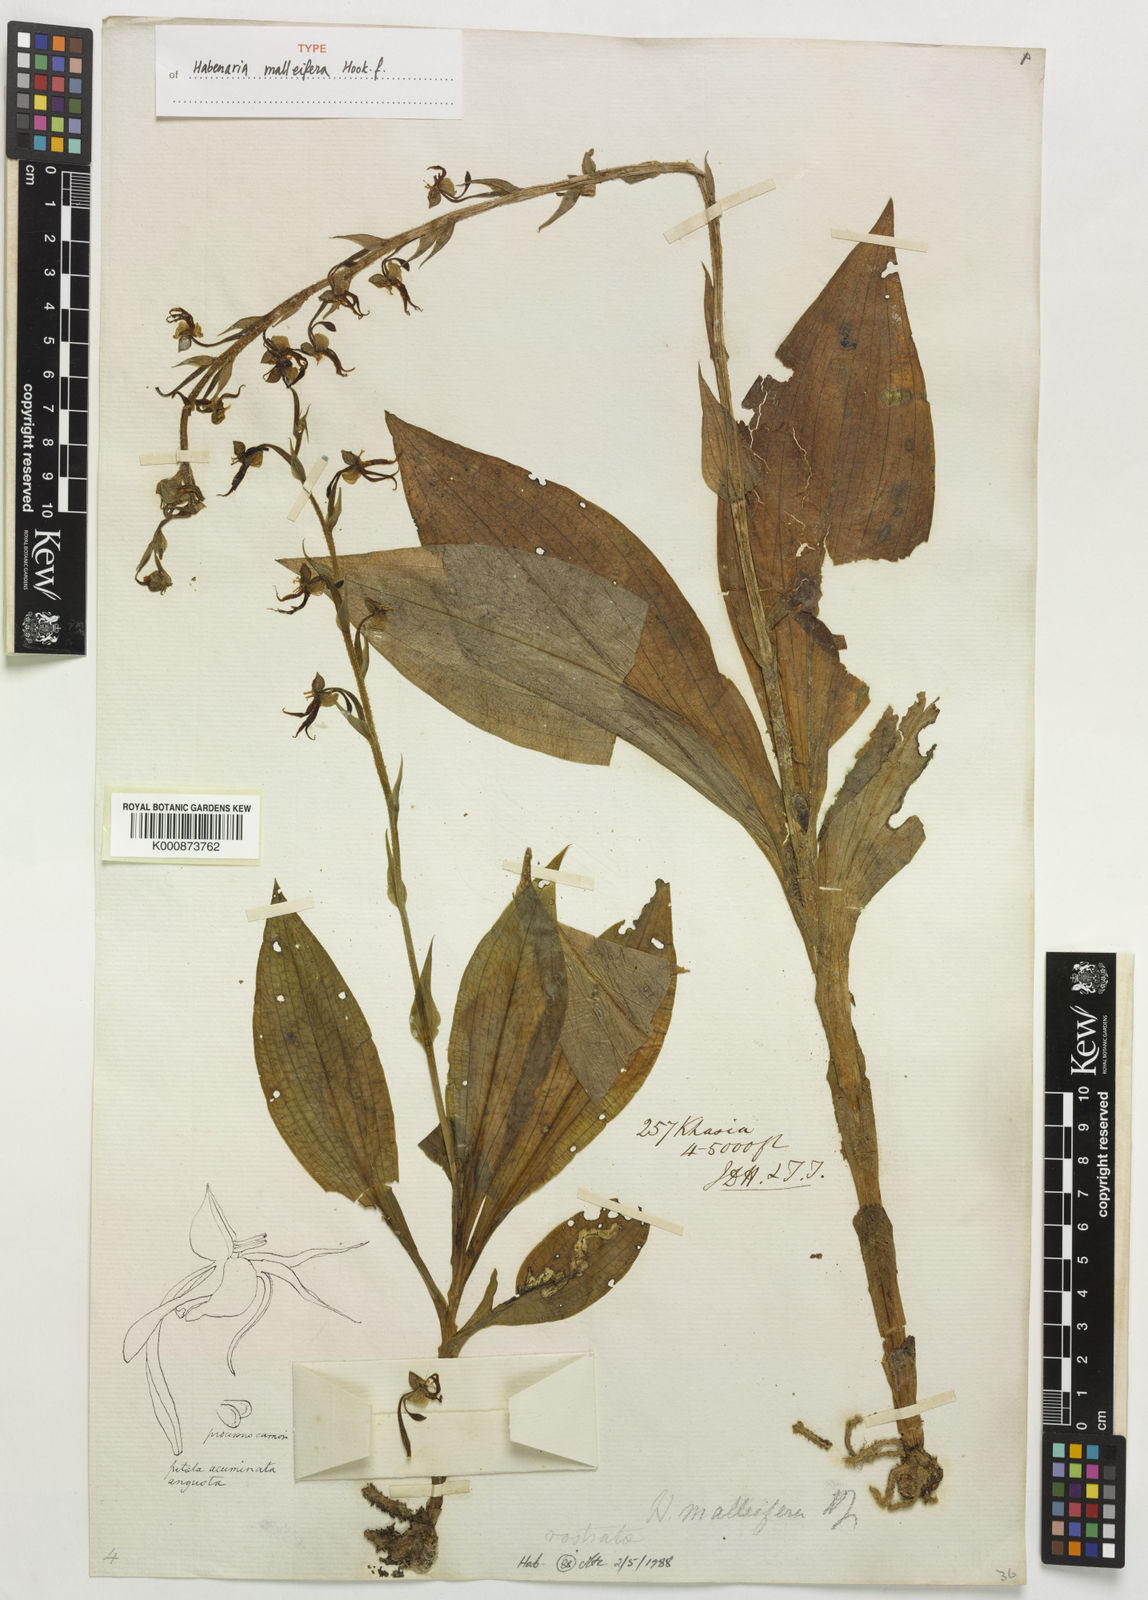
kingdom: Plantae
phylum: Tracheophyta
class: Liliopsida
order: Asparagales
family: Orchidaceae
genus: Habenaria
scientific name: Habenaria malleifera
